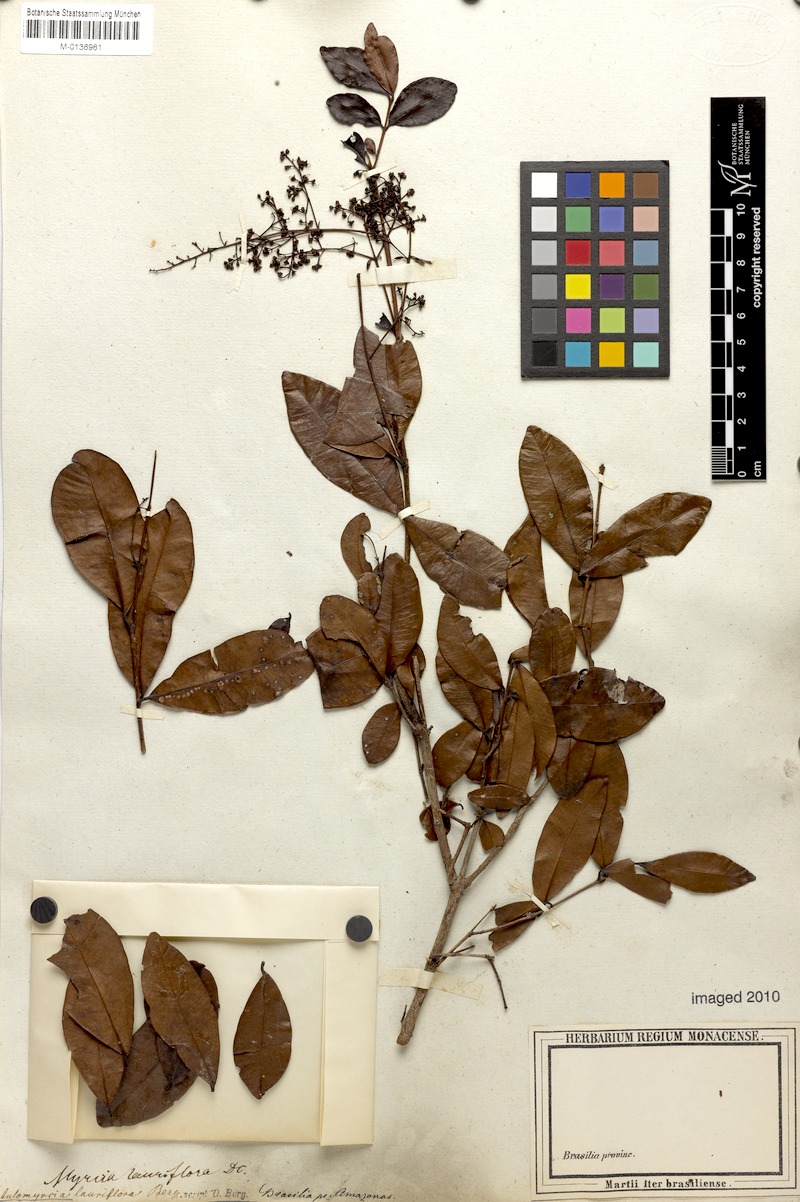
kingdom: Plantae
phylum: Tracheophyta
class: Magnoliopsida
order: Myrtales
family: Myrtaceae
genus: Myrcia
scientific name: Myrcia guianensis
